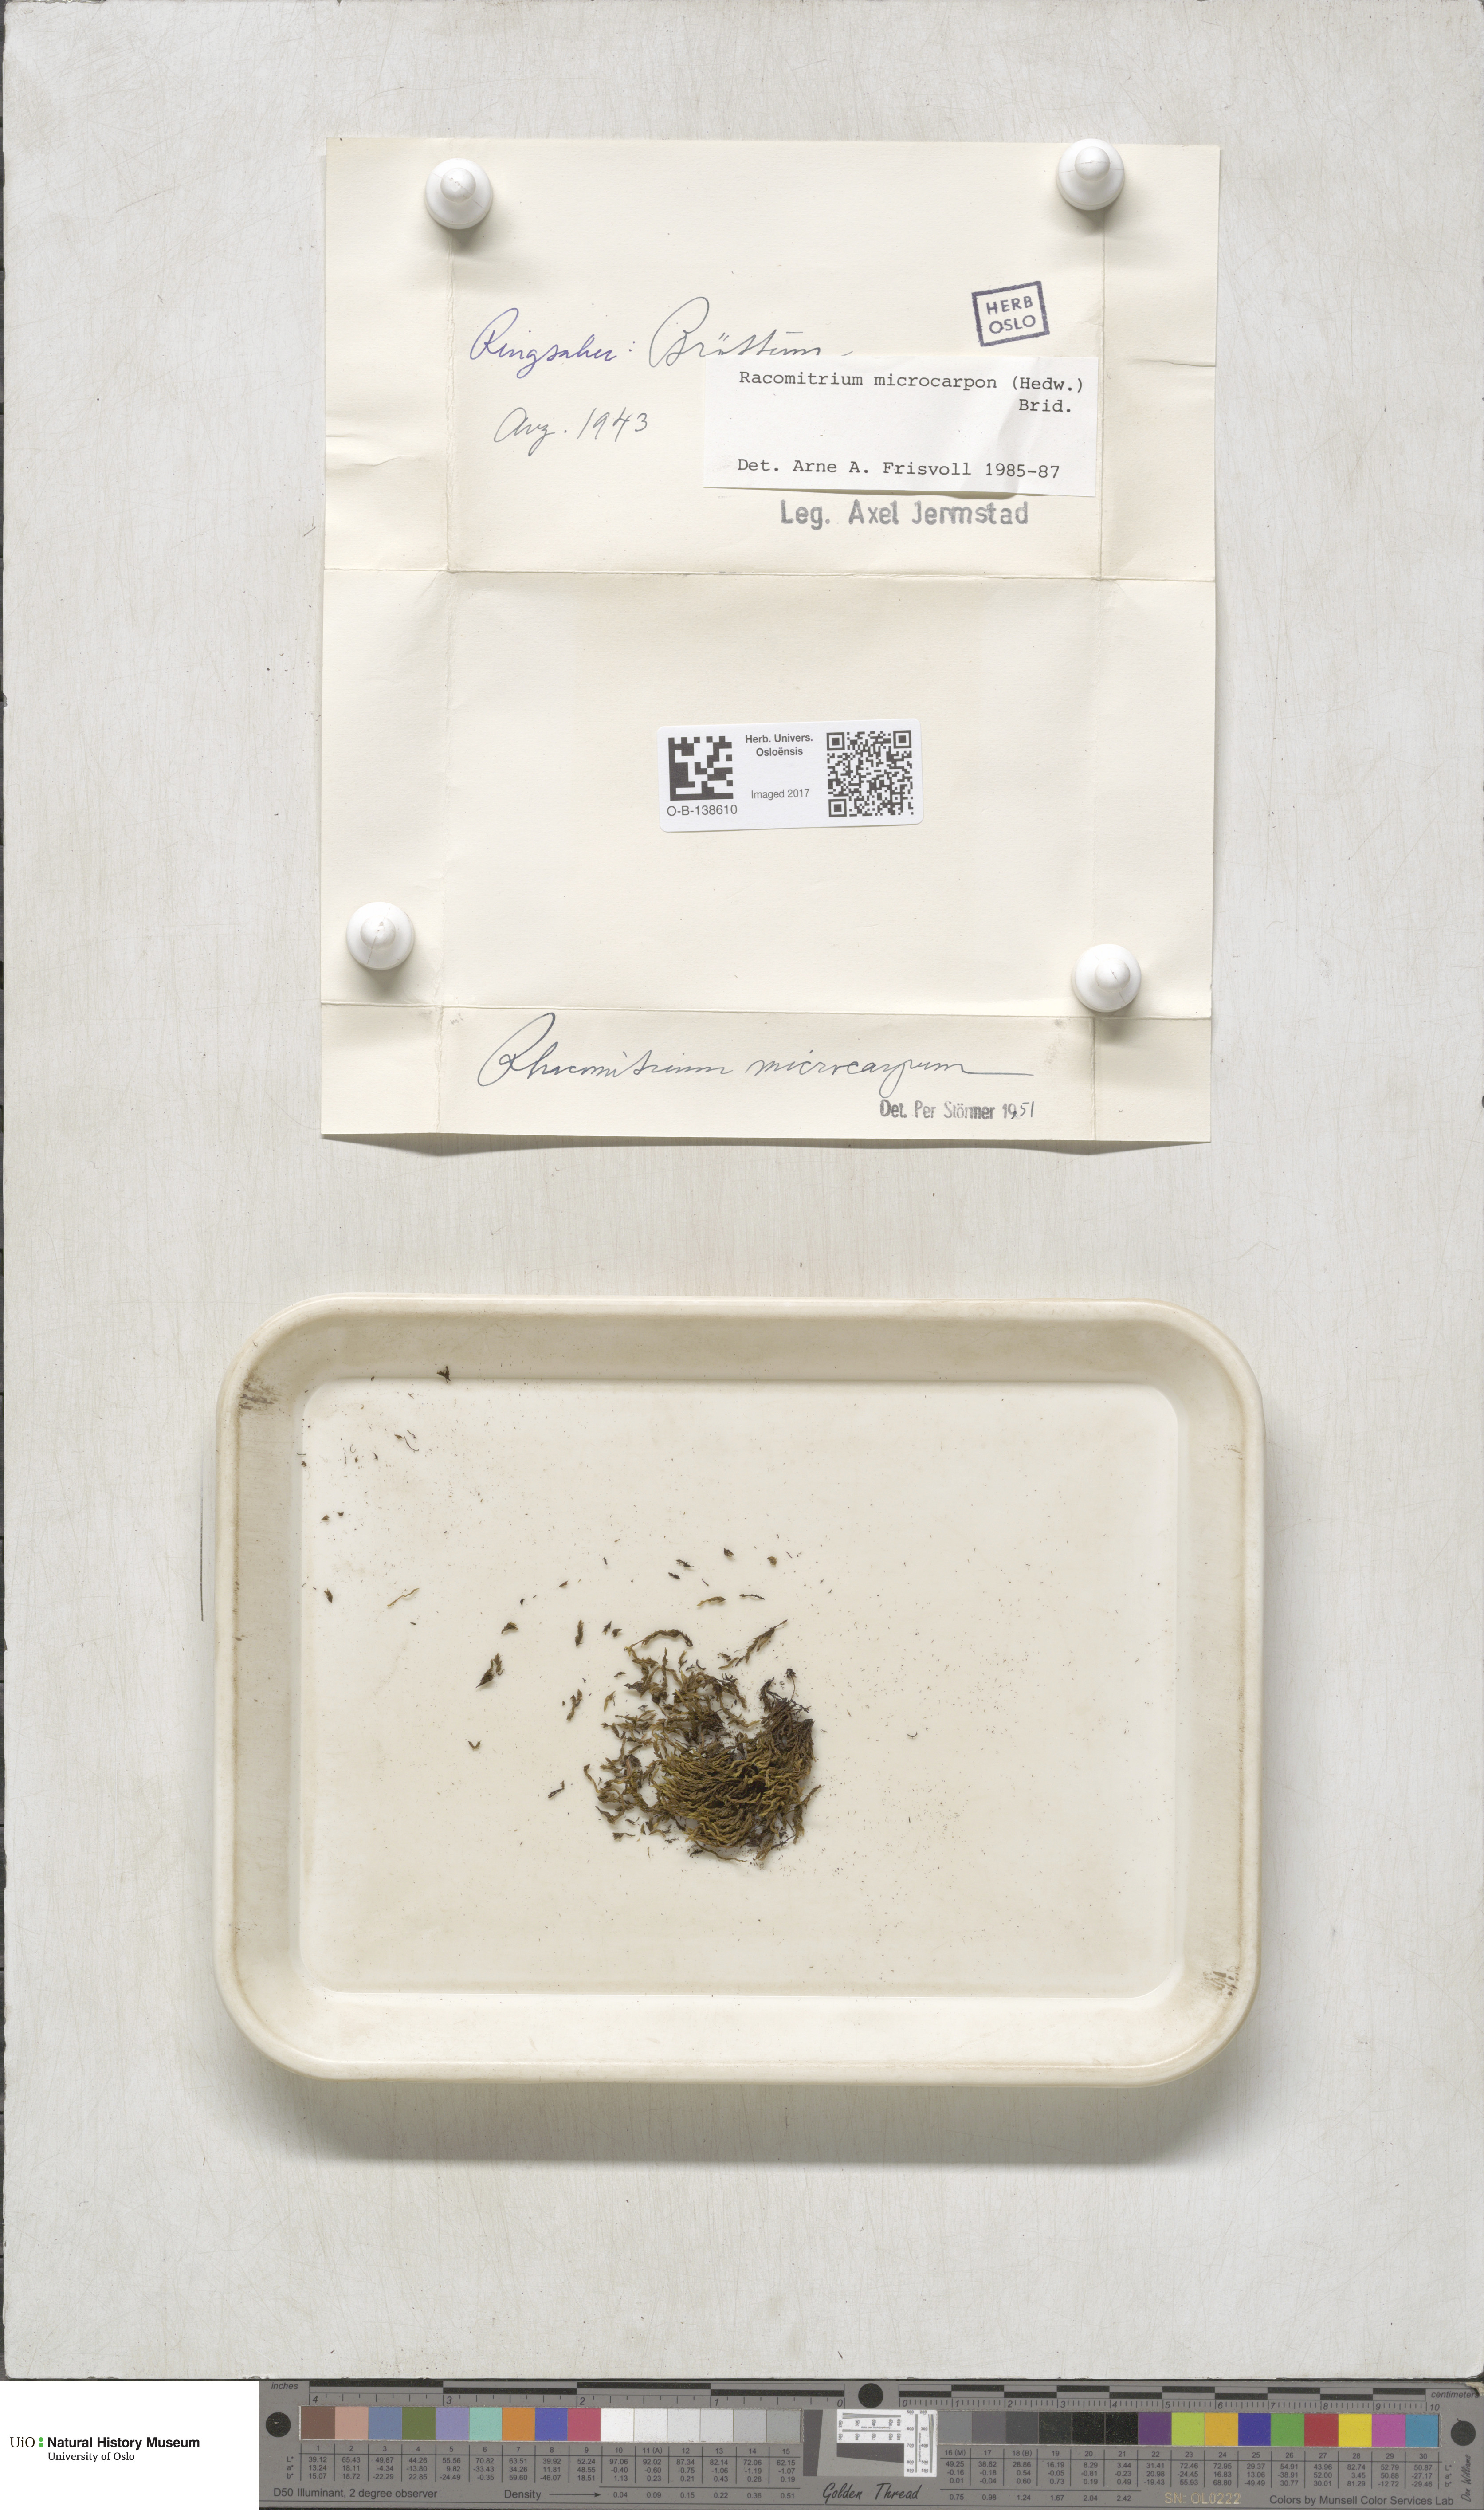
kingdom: Plantae
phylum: Bryophyta
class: Bryopsida
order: Grimmiales
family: Grimmiaceae
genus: Bucklandiella
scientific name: Bucklandiella microcarpos
